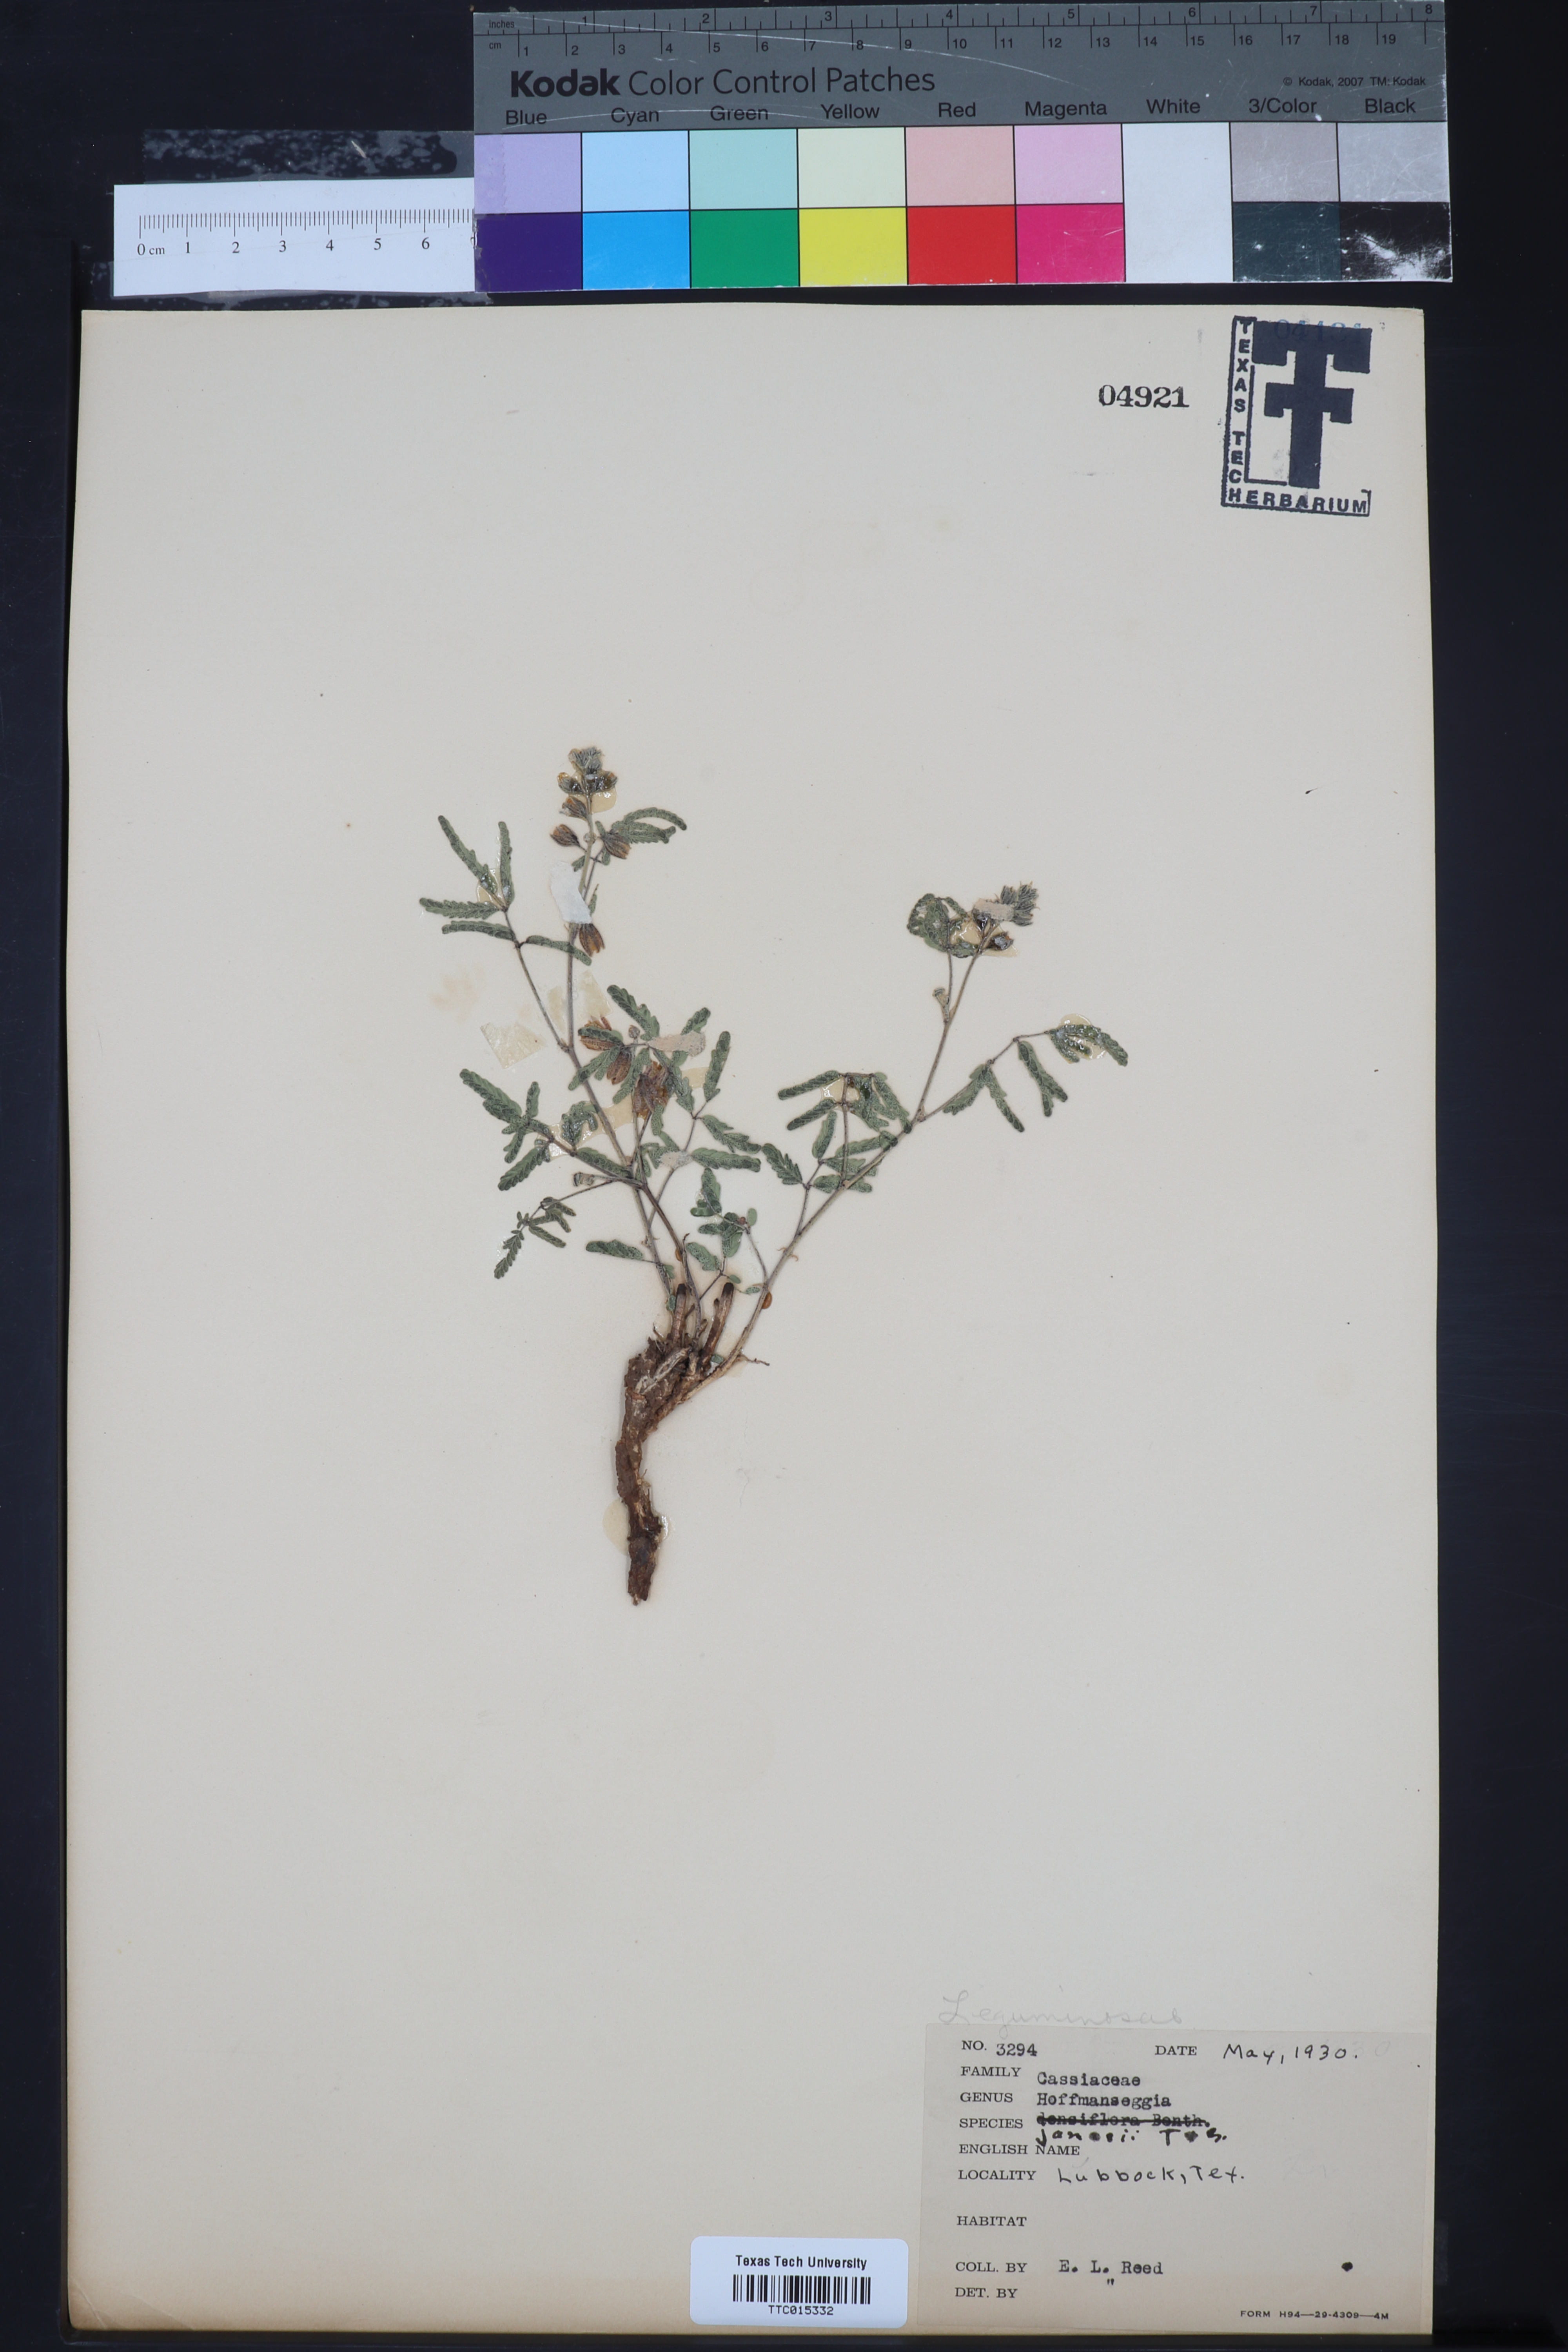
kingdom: Plantae
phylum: Tracheophyta
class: Magnoliopsida
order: Fabales
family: Fabaceae
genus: Pomaria
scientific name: Pomaria jamesii
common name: James' caesalpinia
